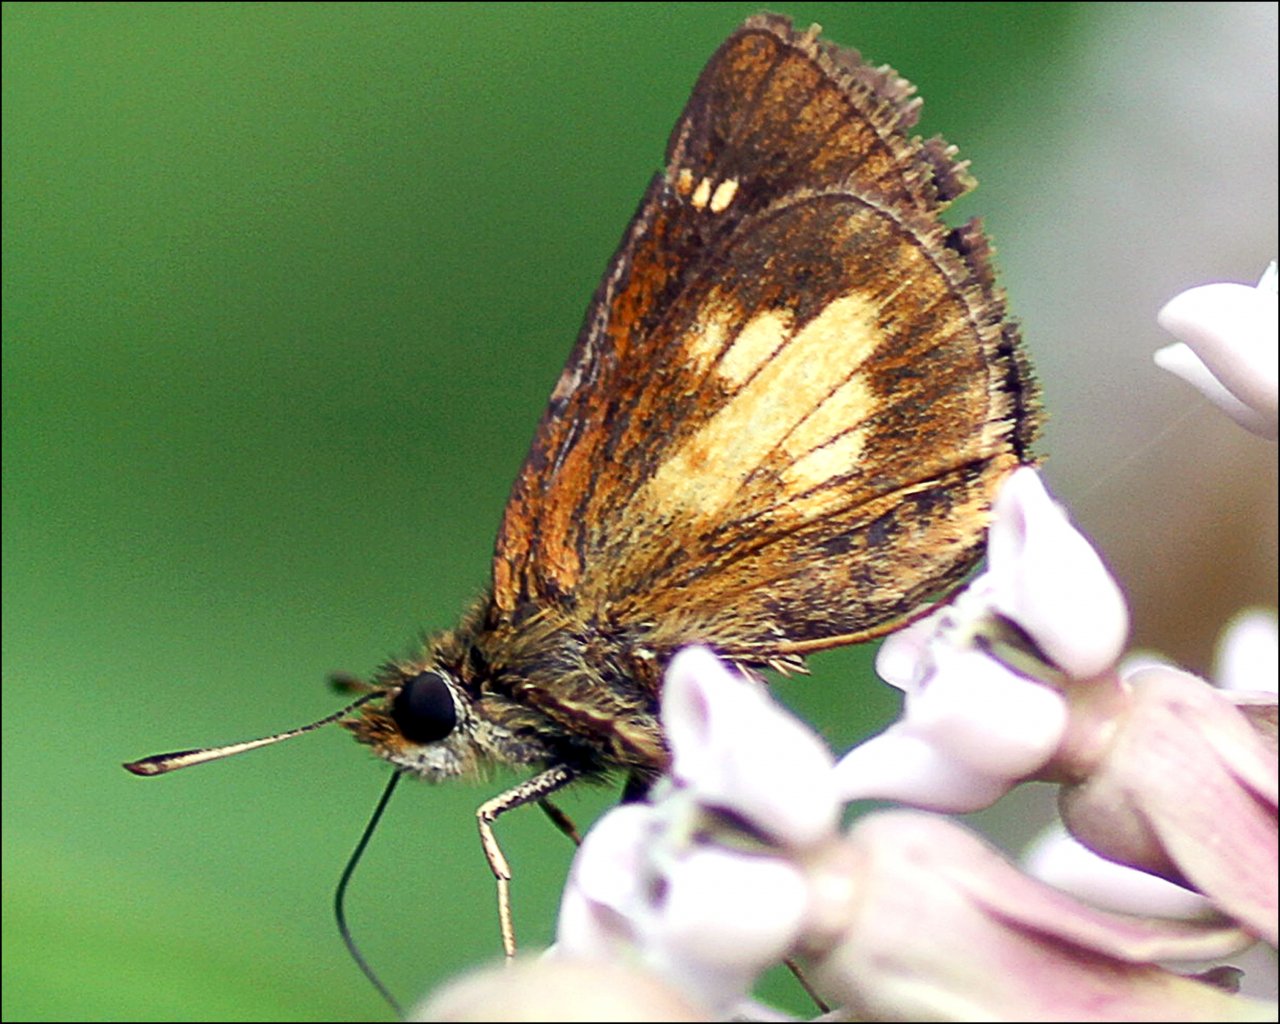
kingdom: Animalia
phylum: Arthropoda
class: Insecta
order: Lepidoptera
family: Hesperiidae
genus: Poanes
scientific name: Poanes massasoit
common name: Mulberry Wing
